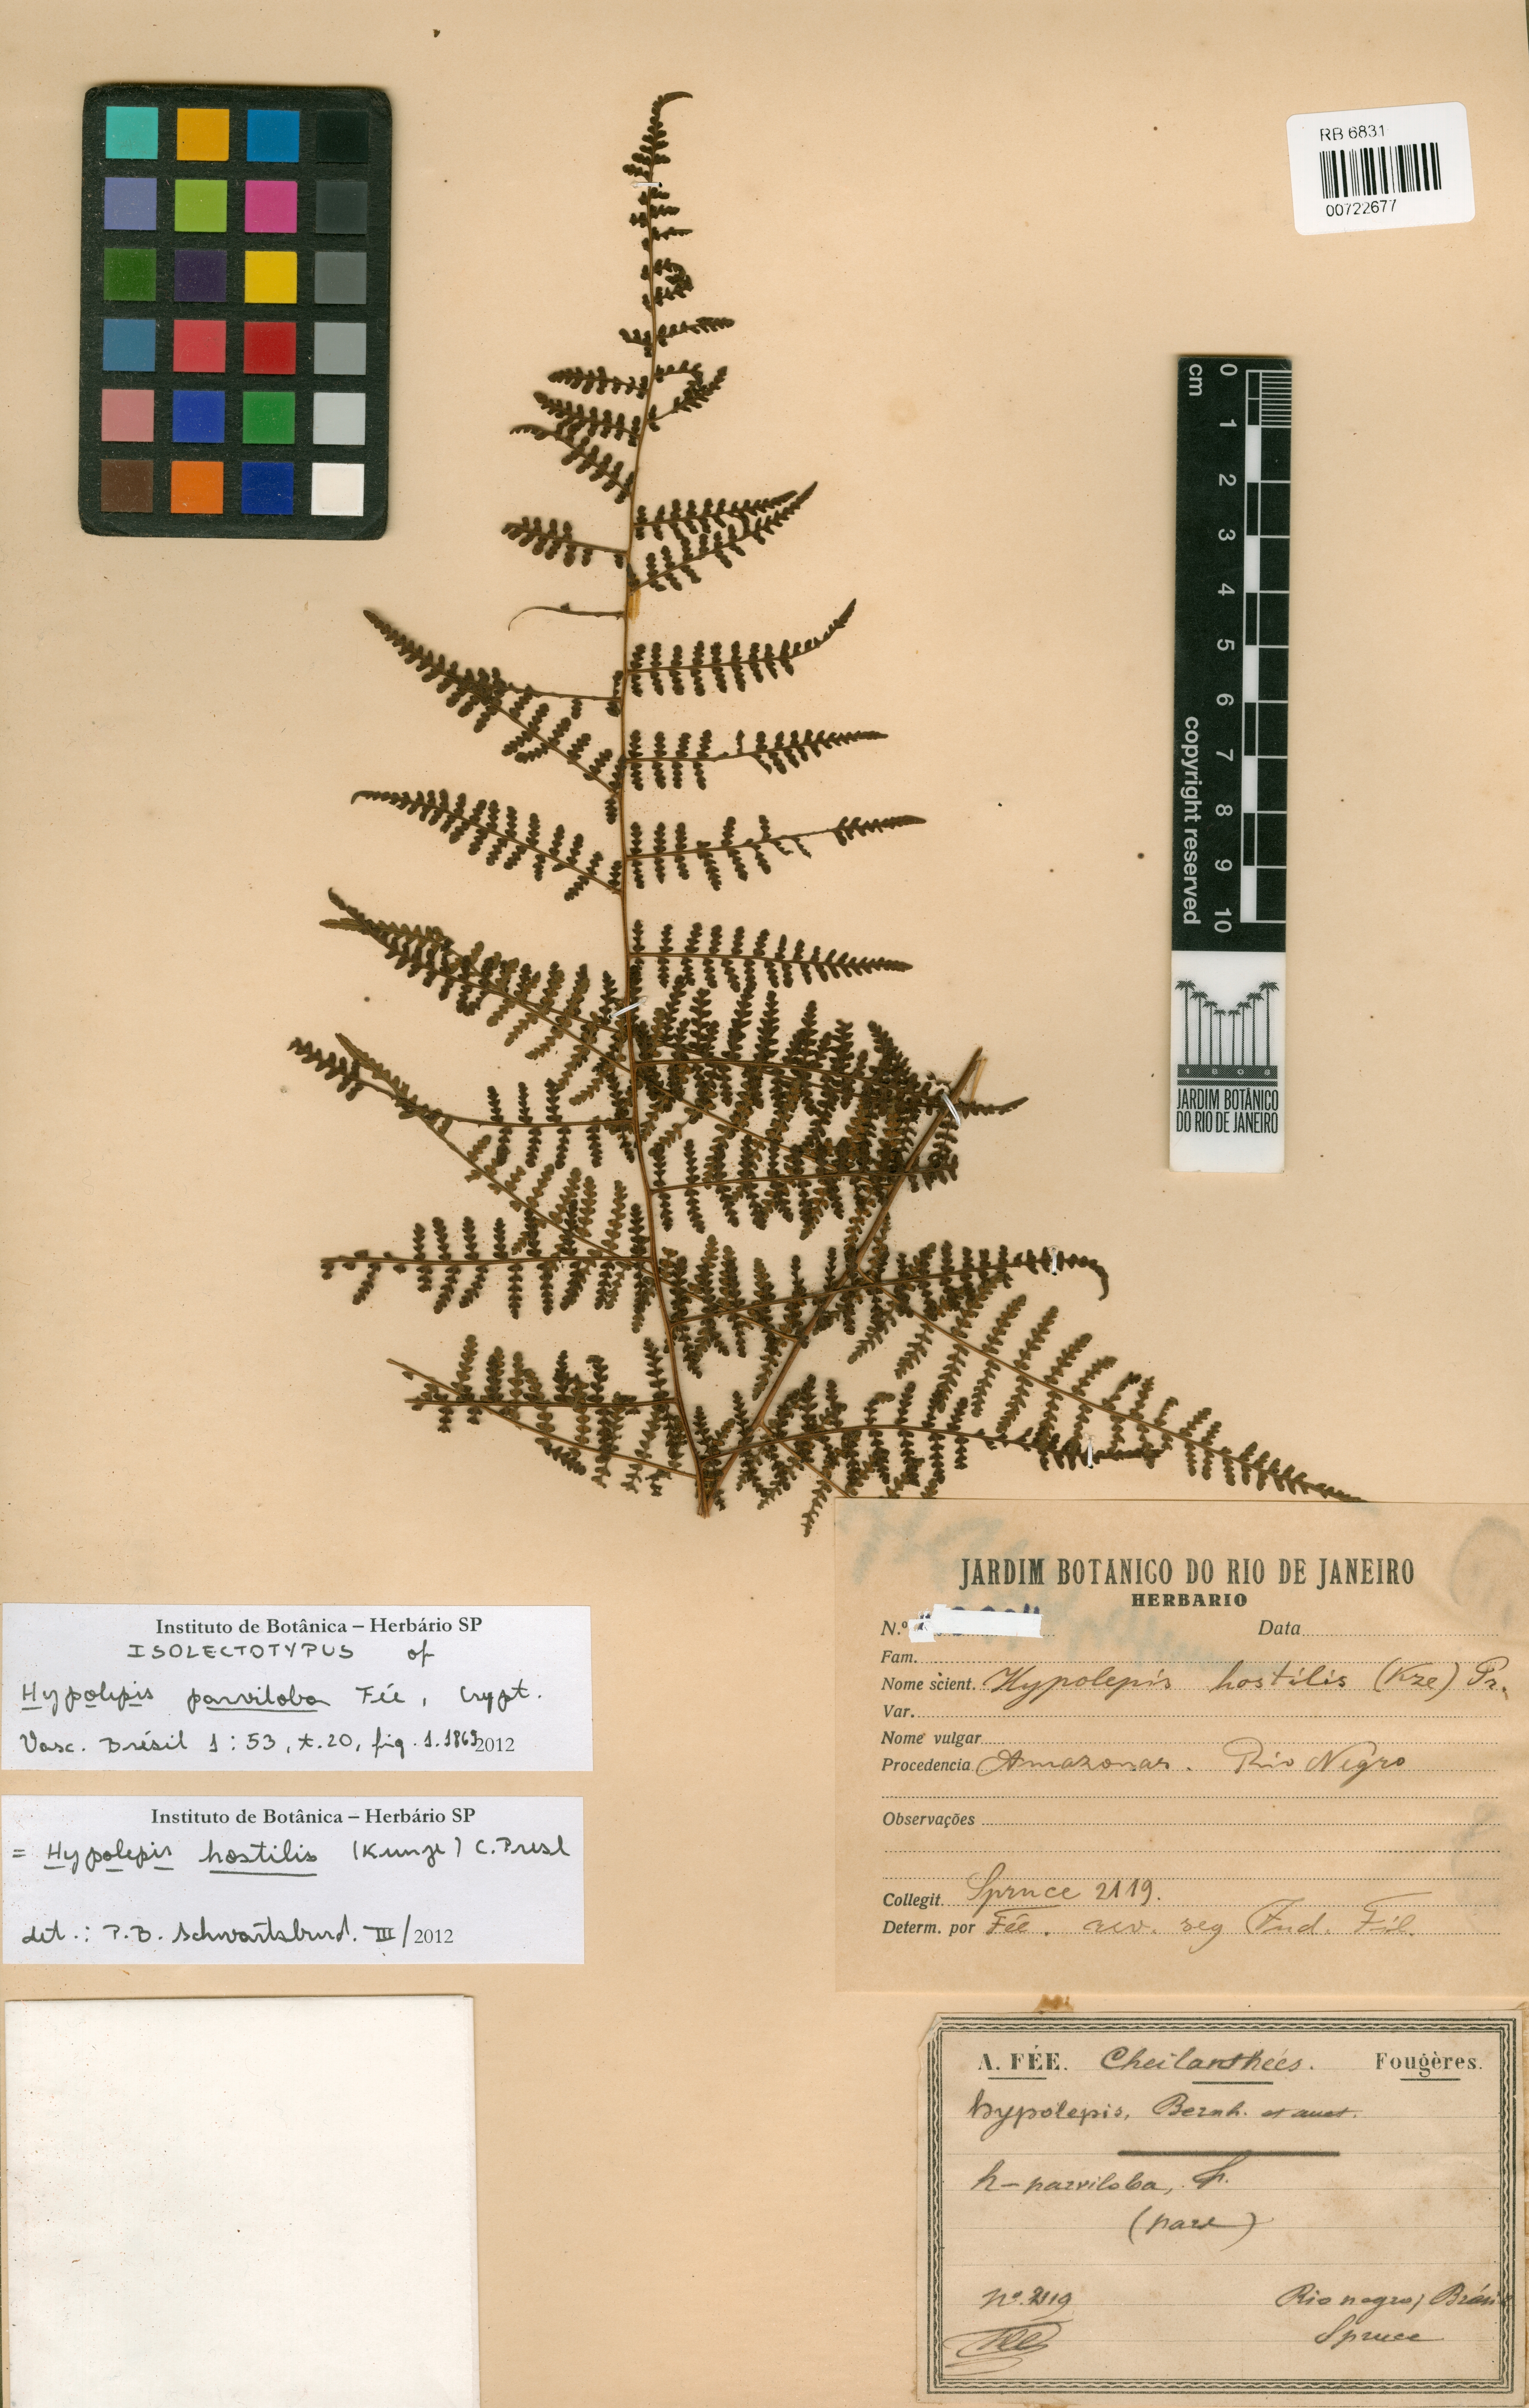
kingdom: Plantae
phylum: Tracheophyta
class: Polypodiopsida
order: Polypodiales
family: Dennstaedtiaceae
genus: Hypolepis
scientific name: Hypolepis hostilis
